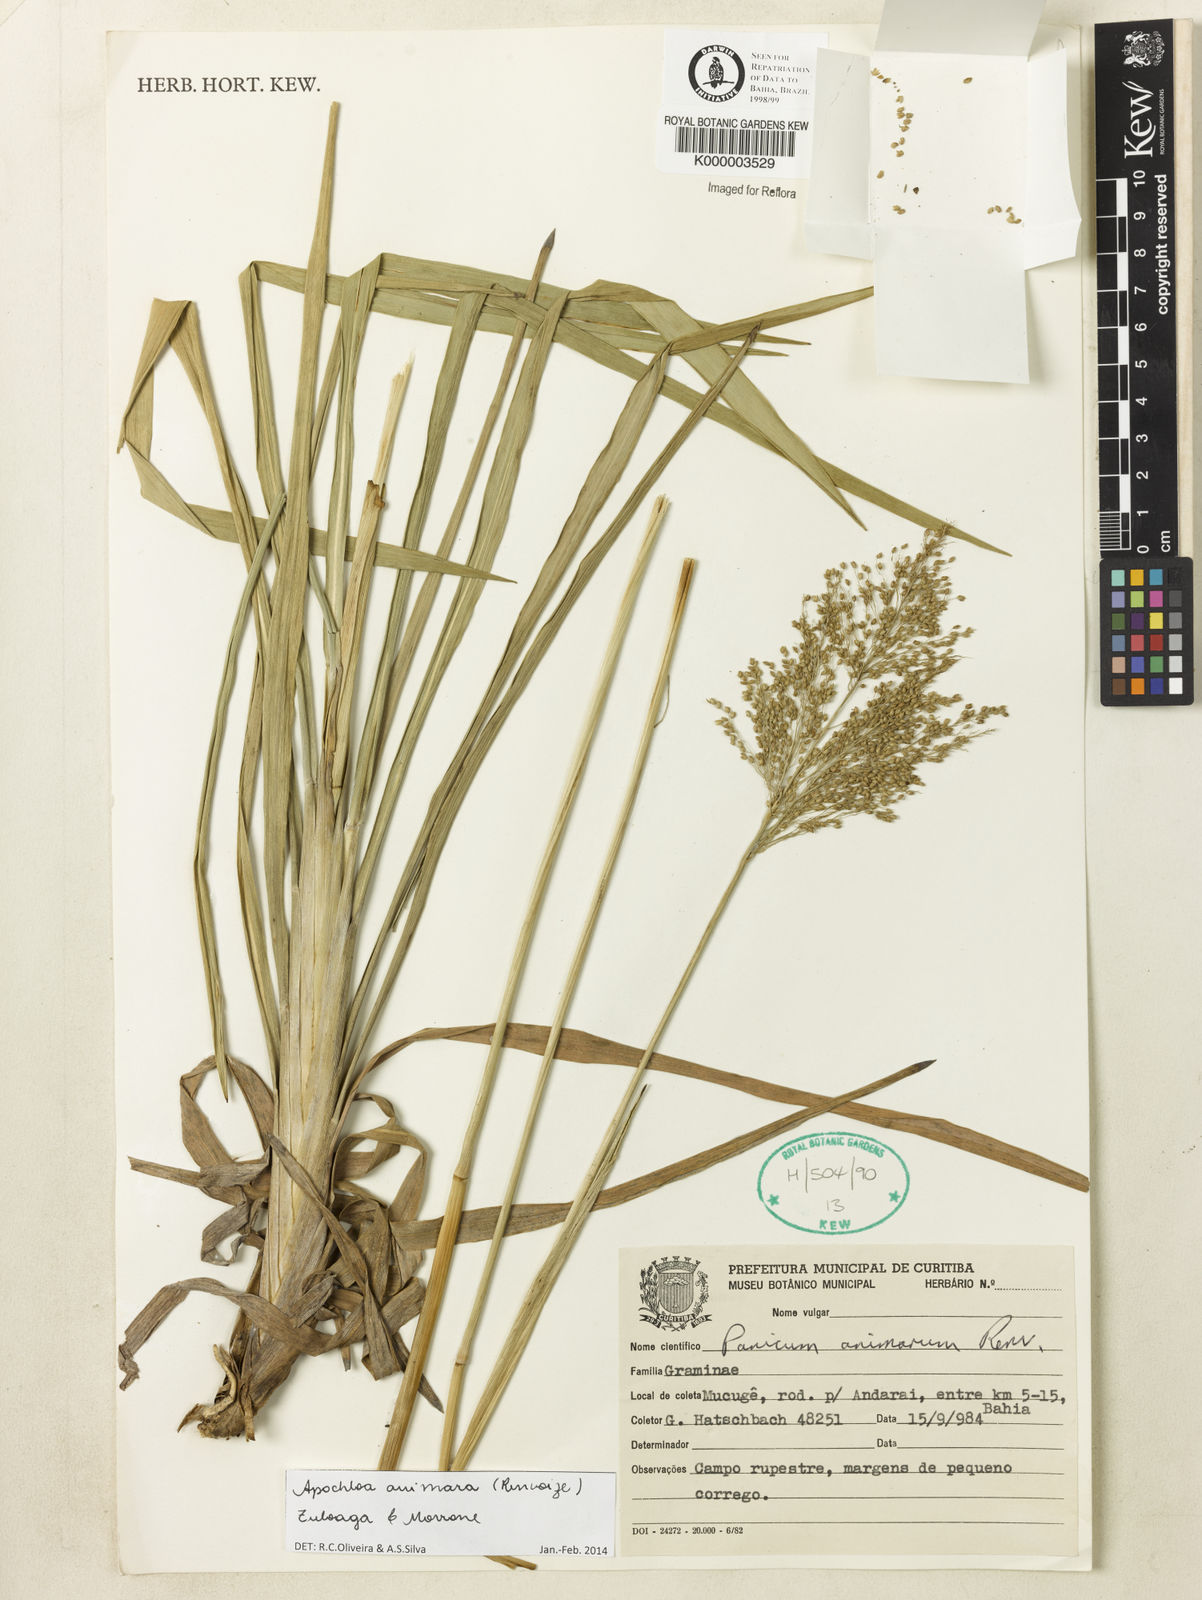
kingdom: Plantae
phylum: Tracheophyta
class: Liliopsida
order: Poales
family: Poaceae
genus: Apochloa
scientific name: Apochloa animara
